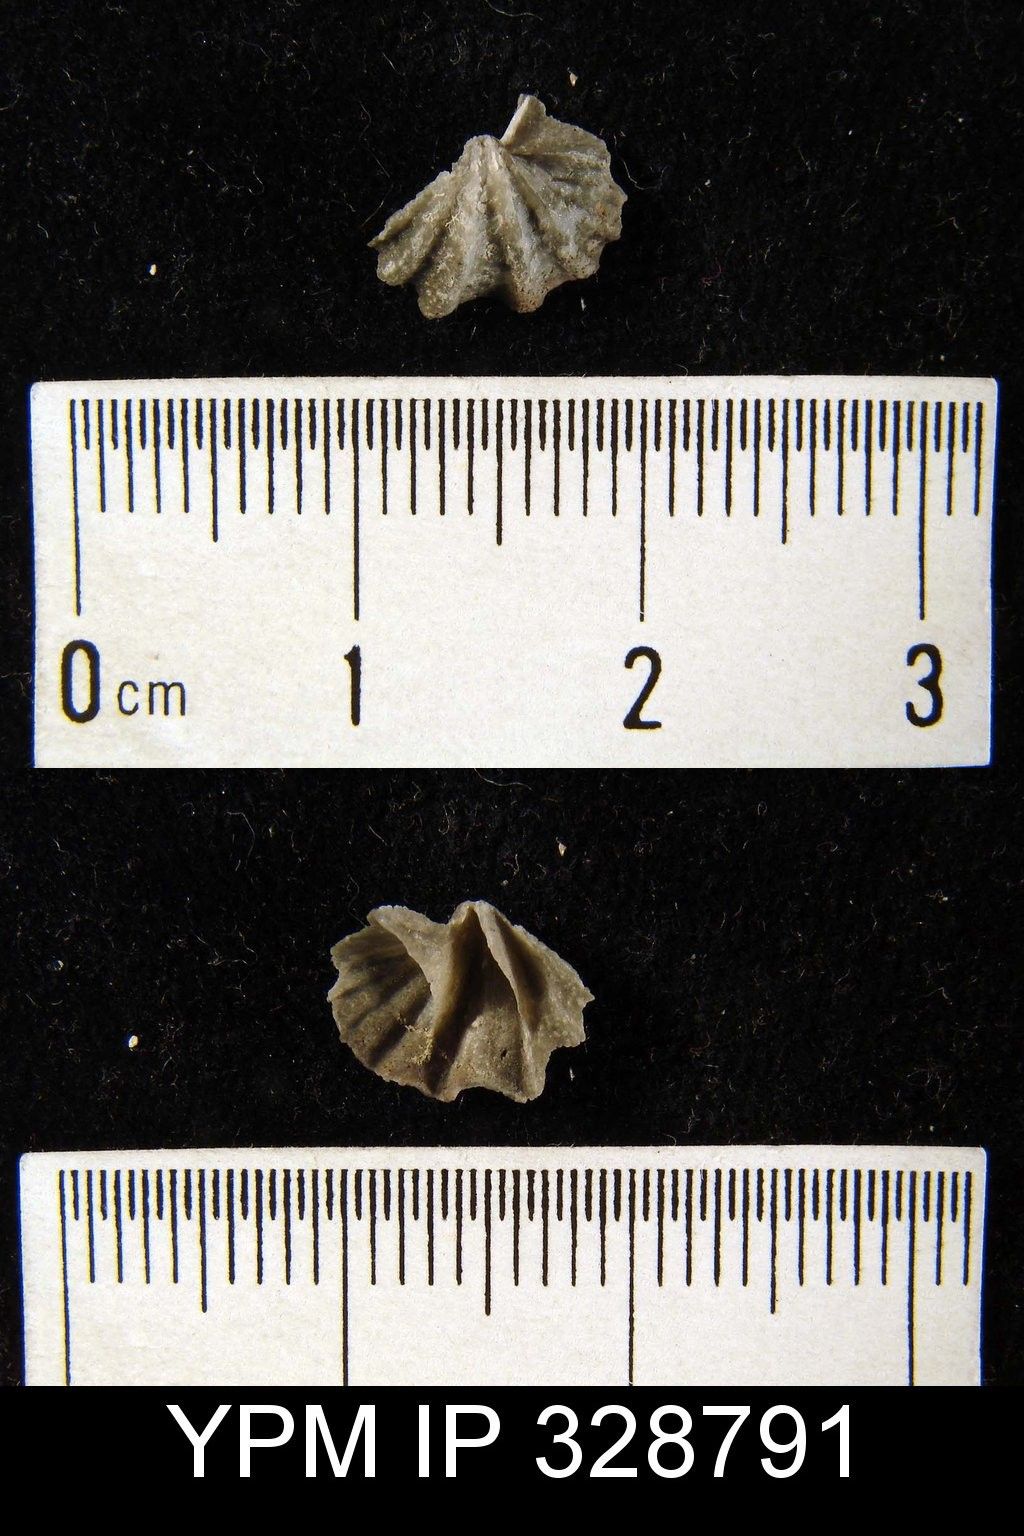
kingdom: Animalia
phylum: Brachiopoda
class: Rhynchonellata
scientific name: Rhynchonellata
